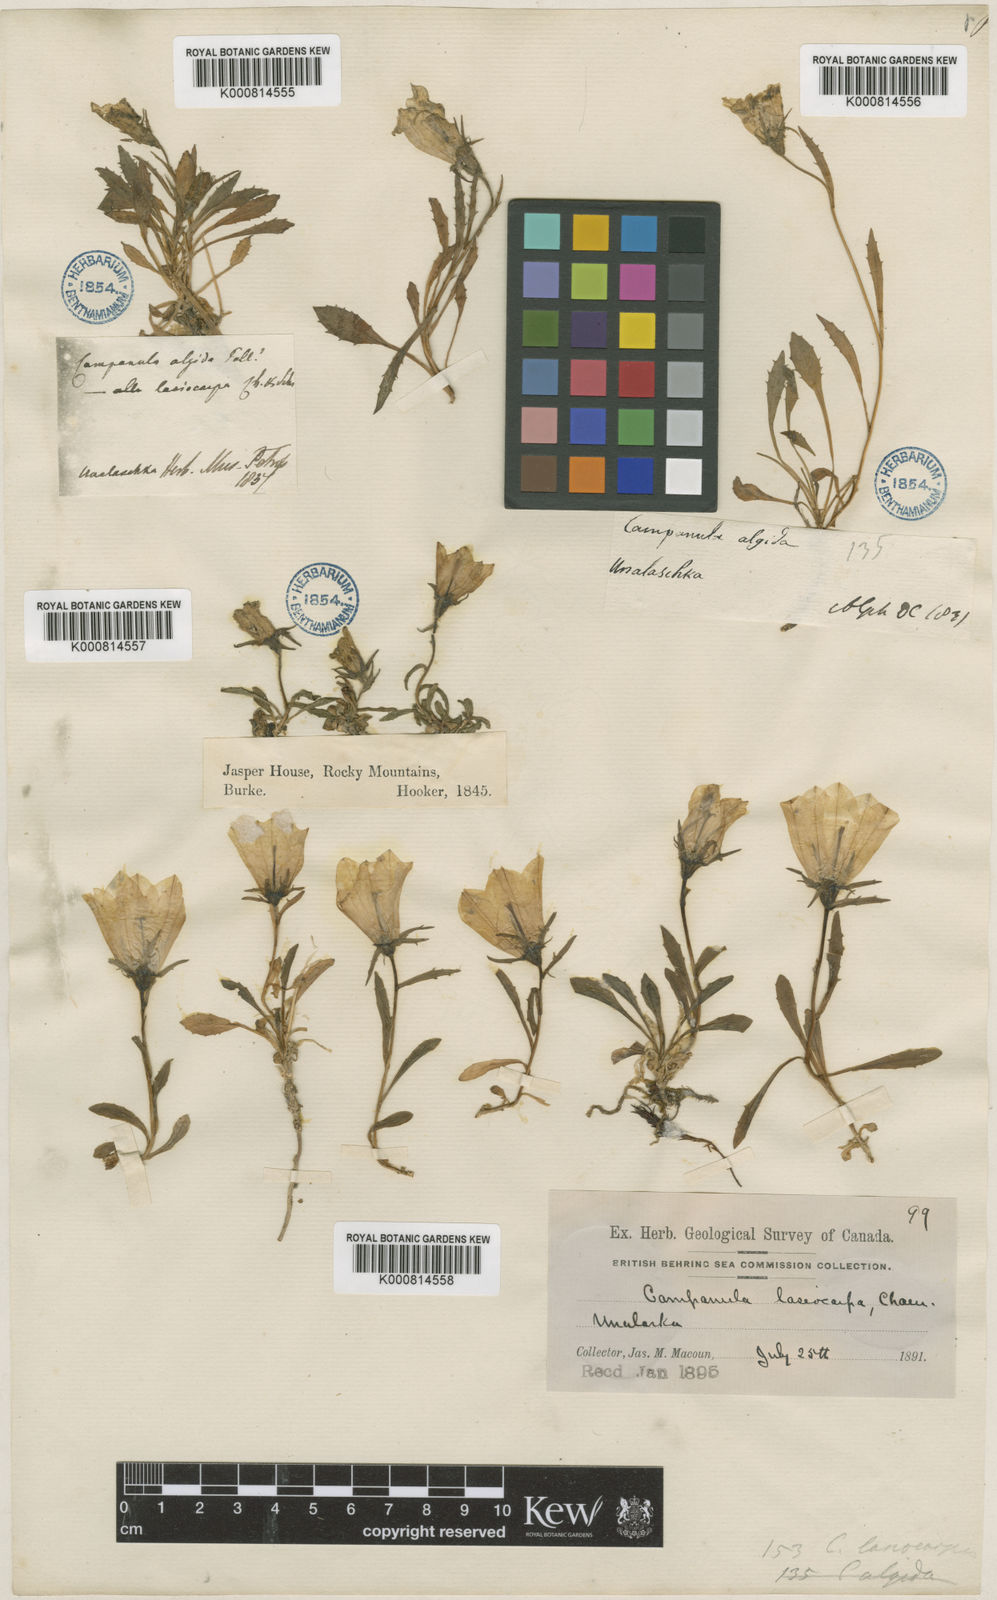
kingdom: Plantae
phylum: Tracheophyta
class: Magnoliopsida
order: Asterales
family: Campanulaceae
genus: Campanula
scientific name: Campanula lasiocarpa
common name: Mountain harebell
